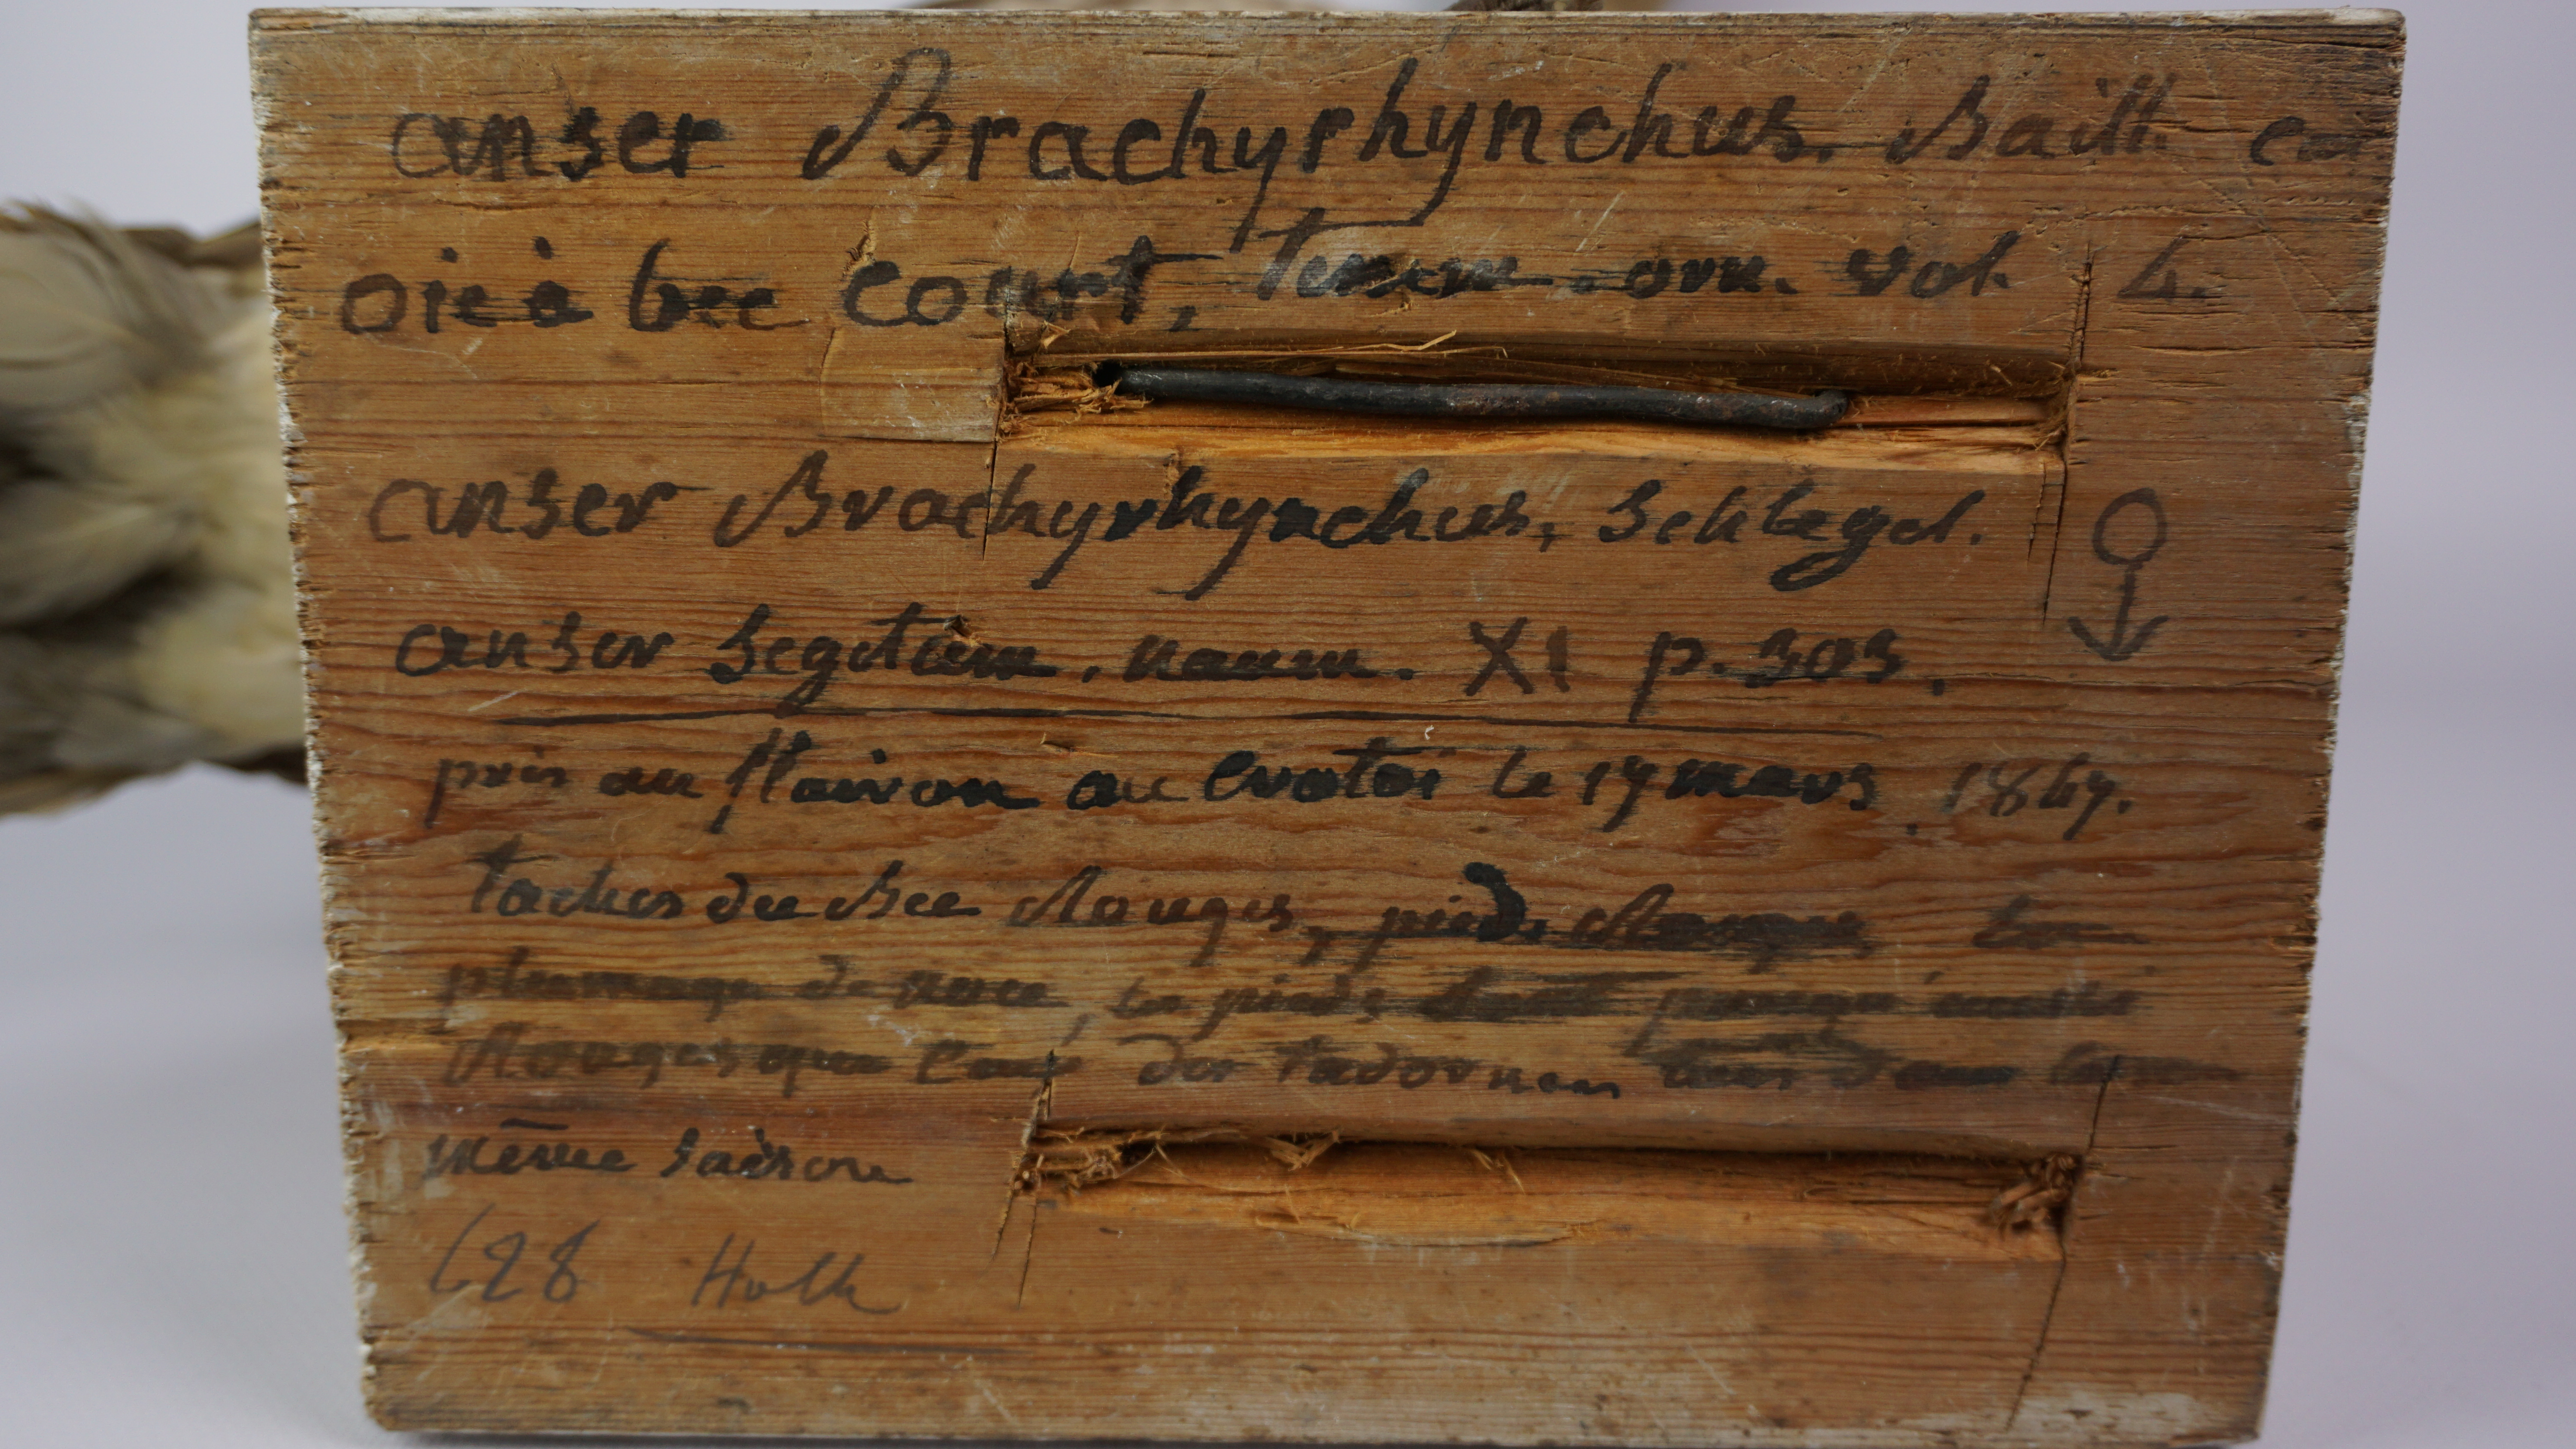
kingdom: Animalia
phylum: Chordata
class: Aves
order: Anseriformes
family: Anatidae
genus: Anser
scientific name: Anser brachyrhynchus
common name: Pink-footed goose
